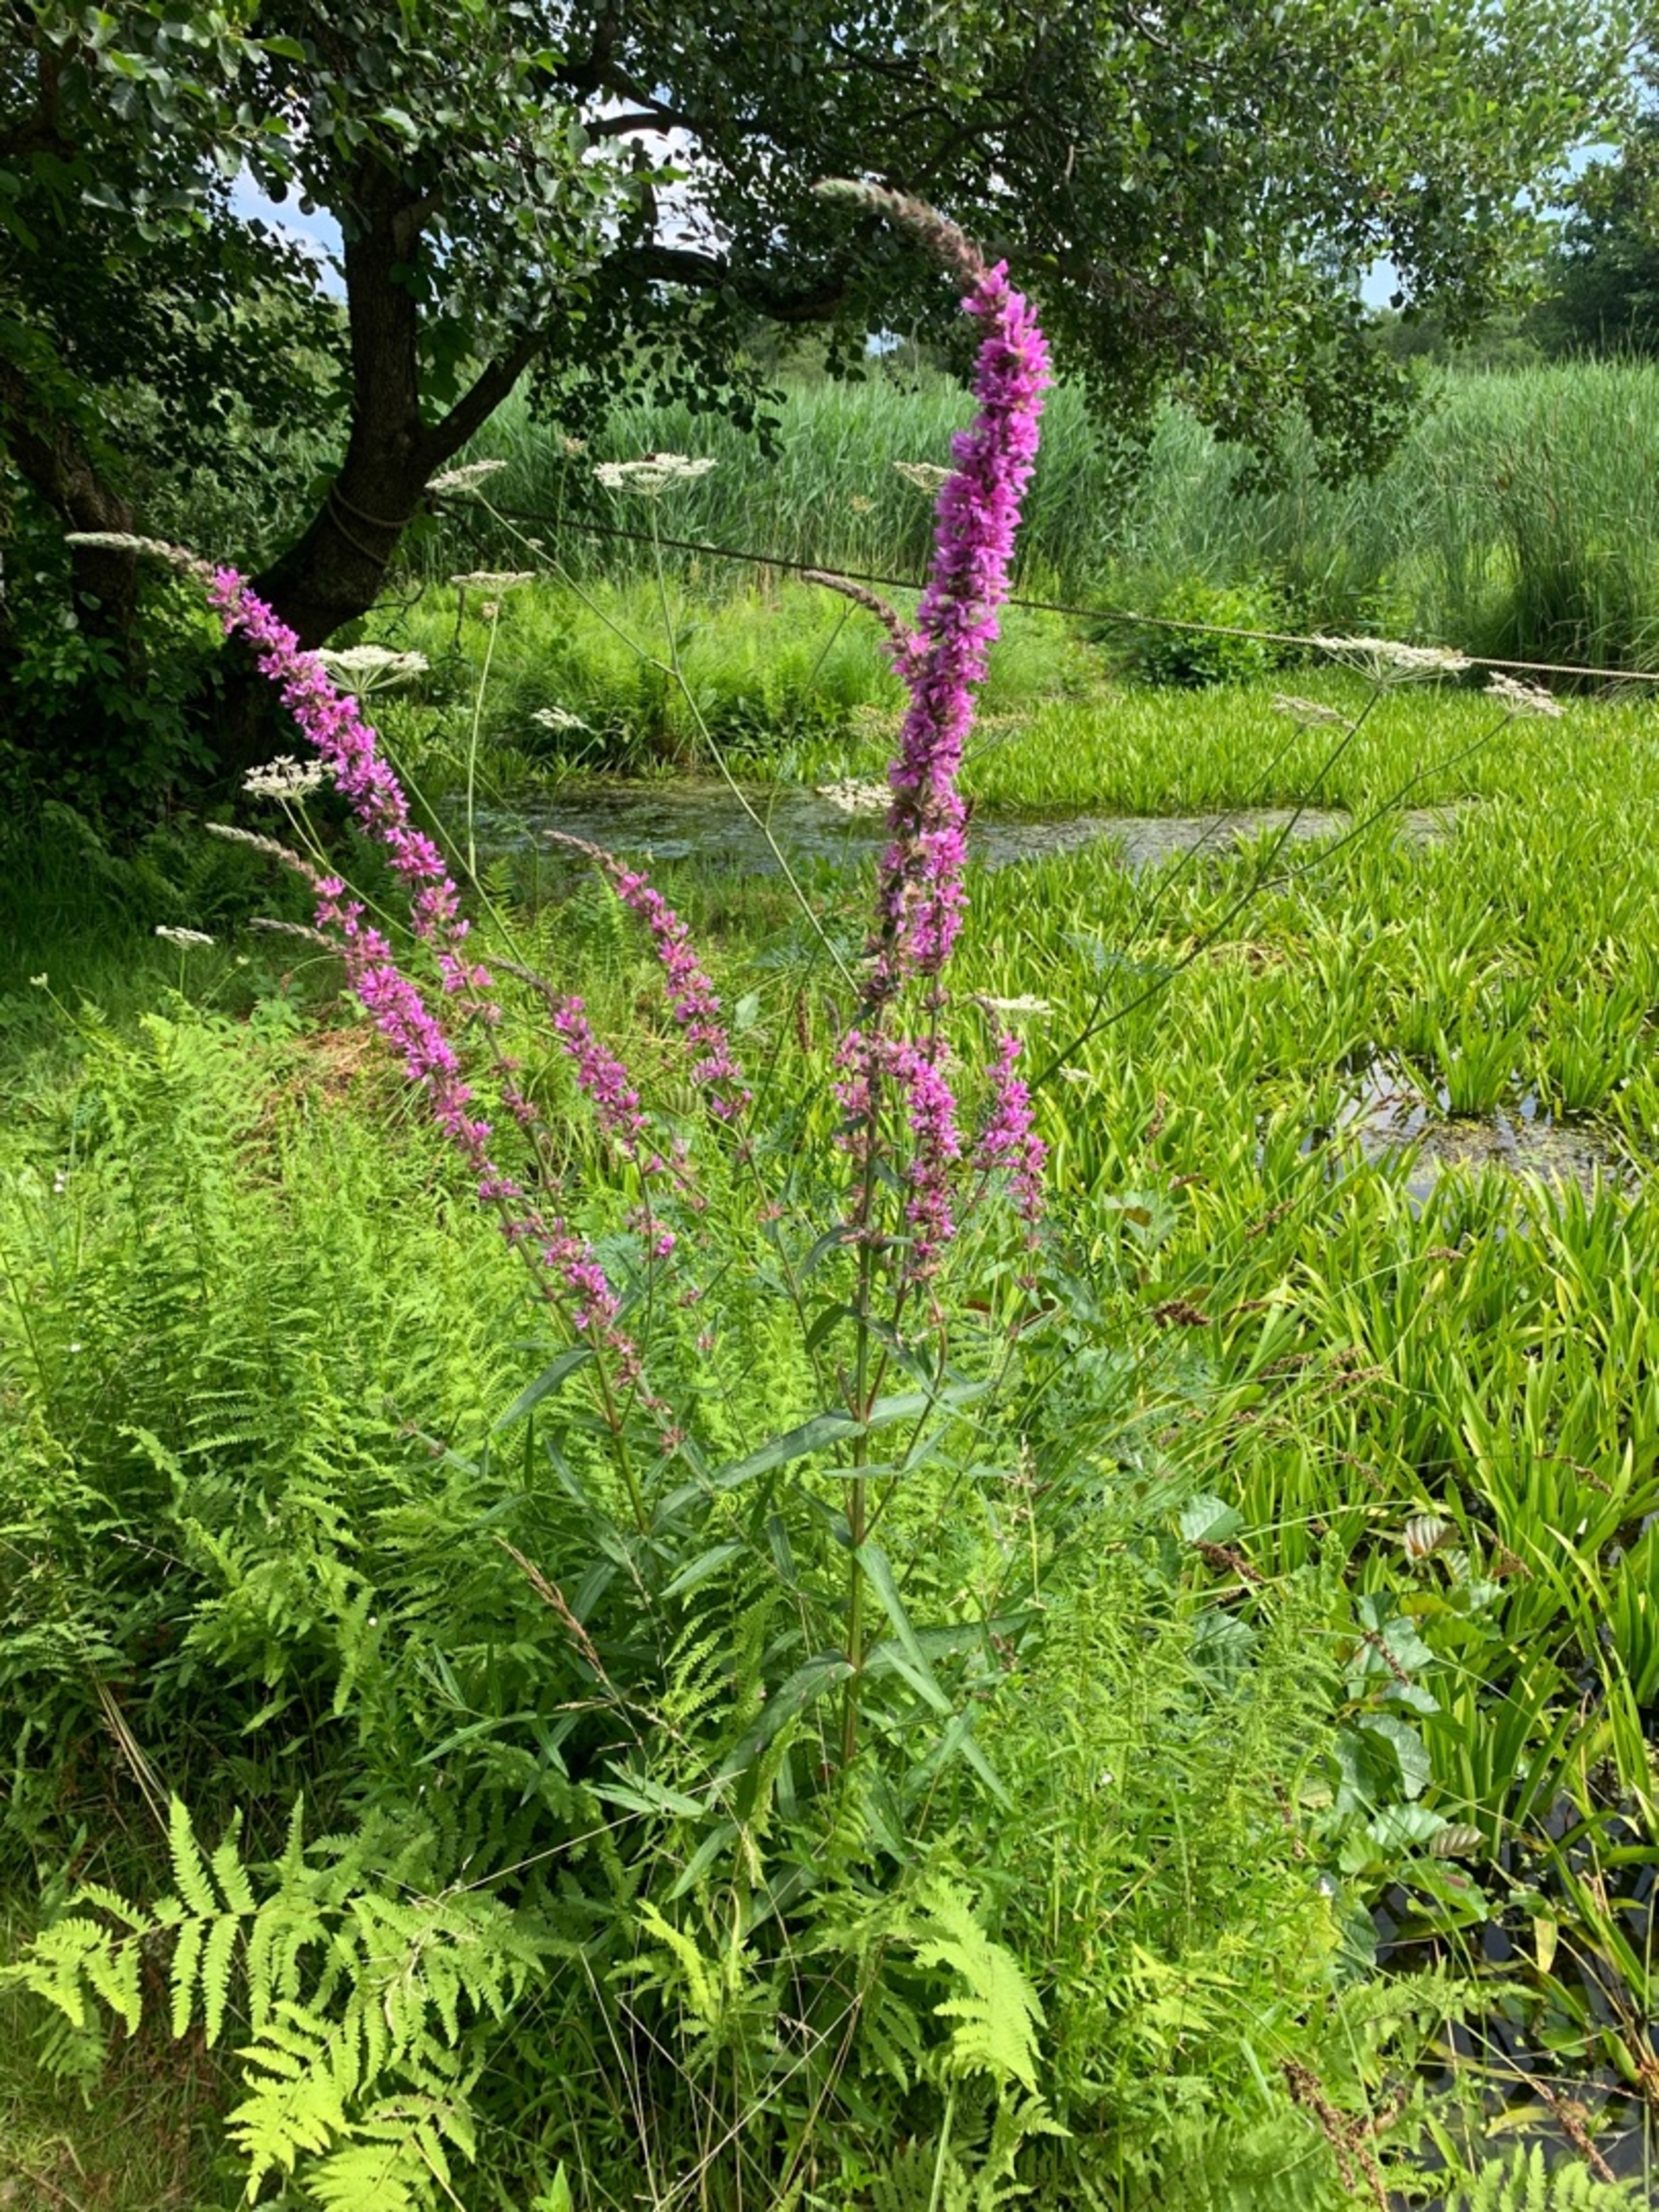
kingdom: Plantae
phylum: Tracheophyta
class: Magnoliopsida
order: Myrtales
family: Lythraceae
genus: Lythrum
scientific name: Lythrum salicaria
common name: Kattehale
